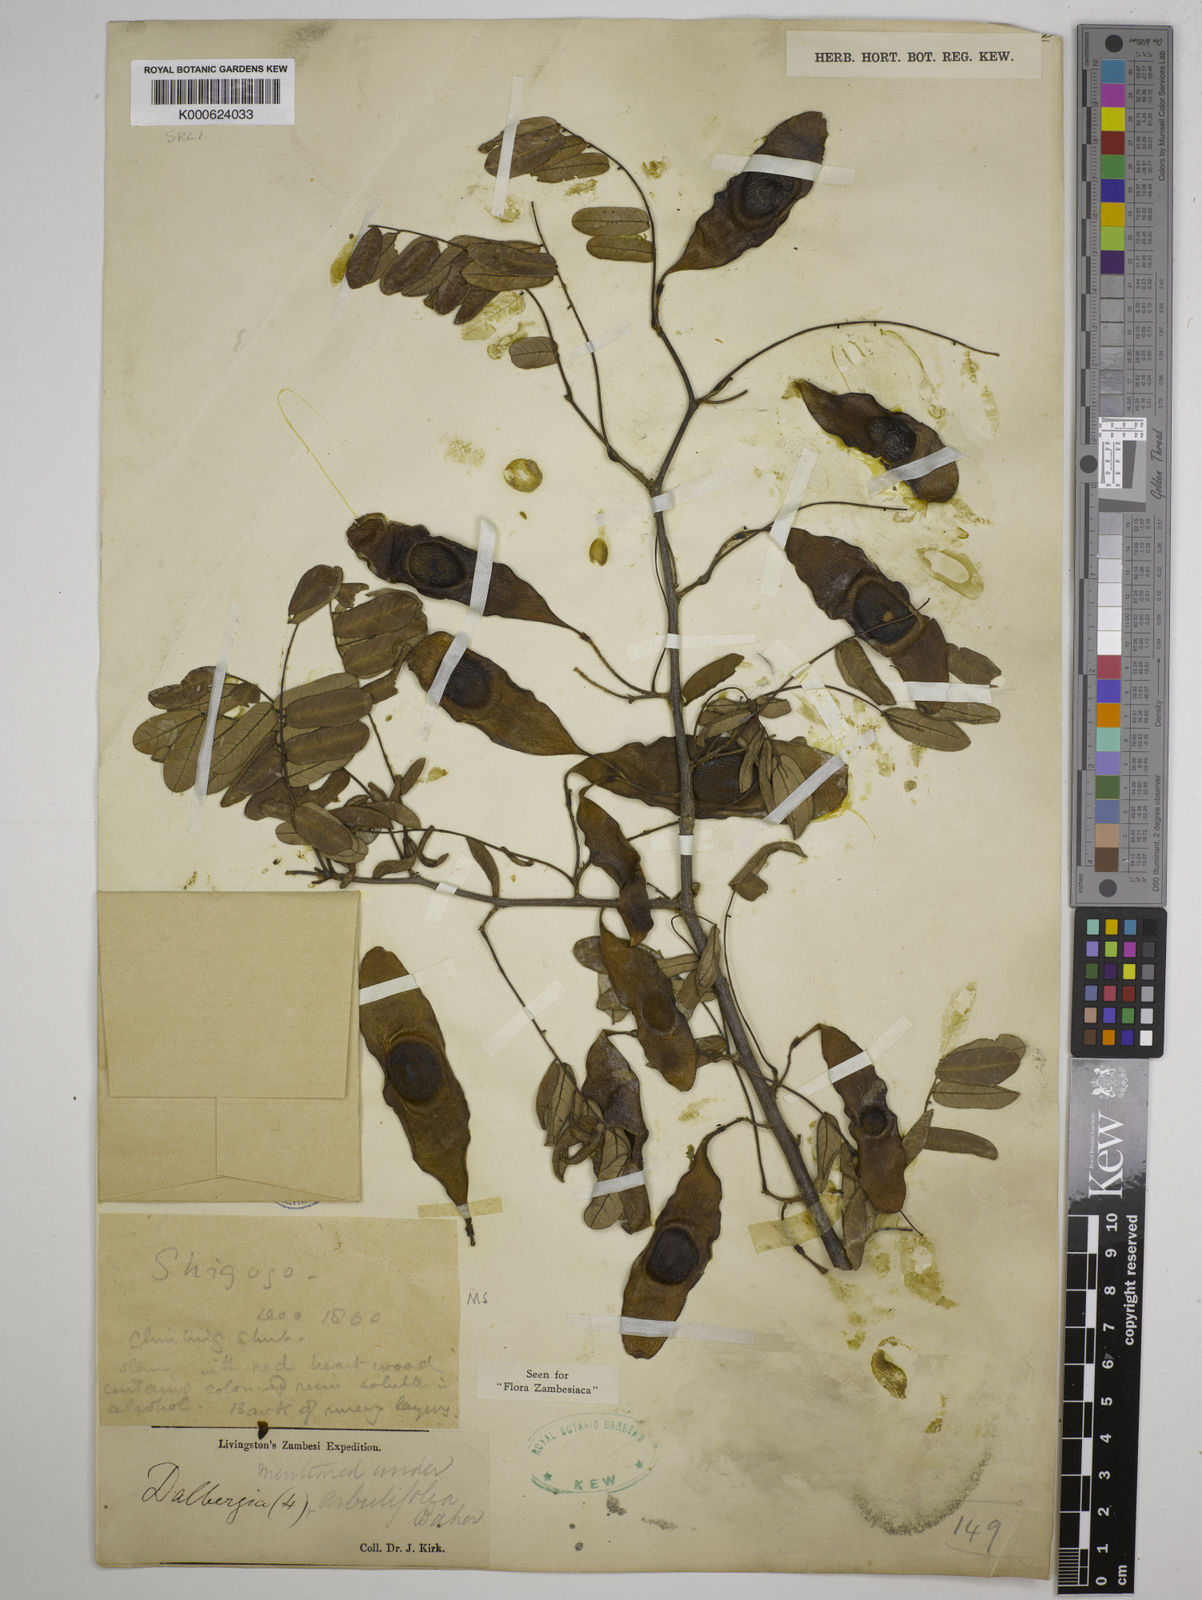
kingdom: Plantae
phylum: Tracheophyta
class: Magnoliopsida
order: Fabales
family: Fabaceae
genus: Dalbergia
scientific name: Dalbergia arbutifolia
